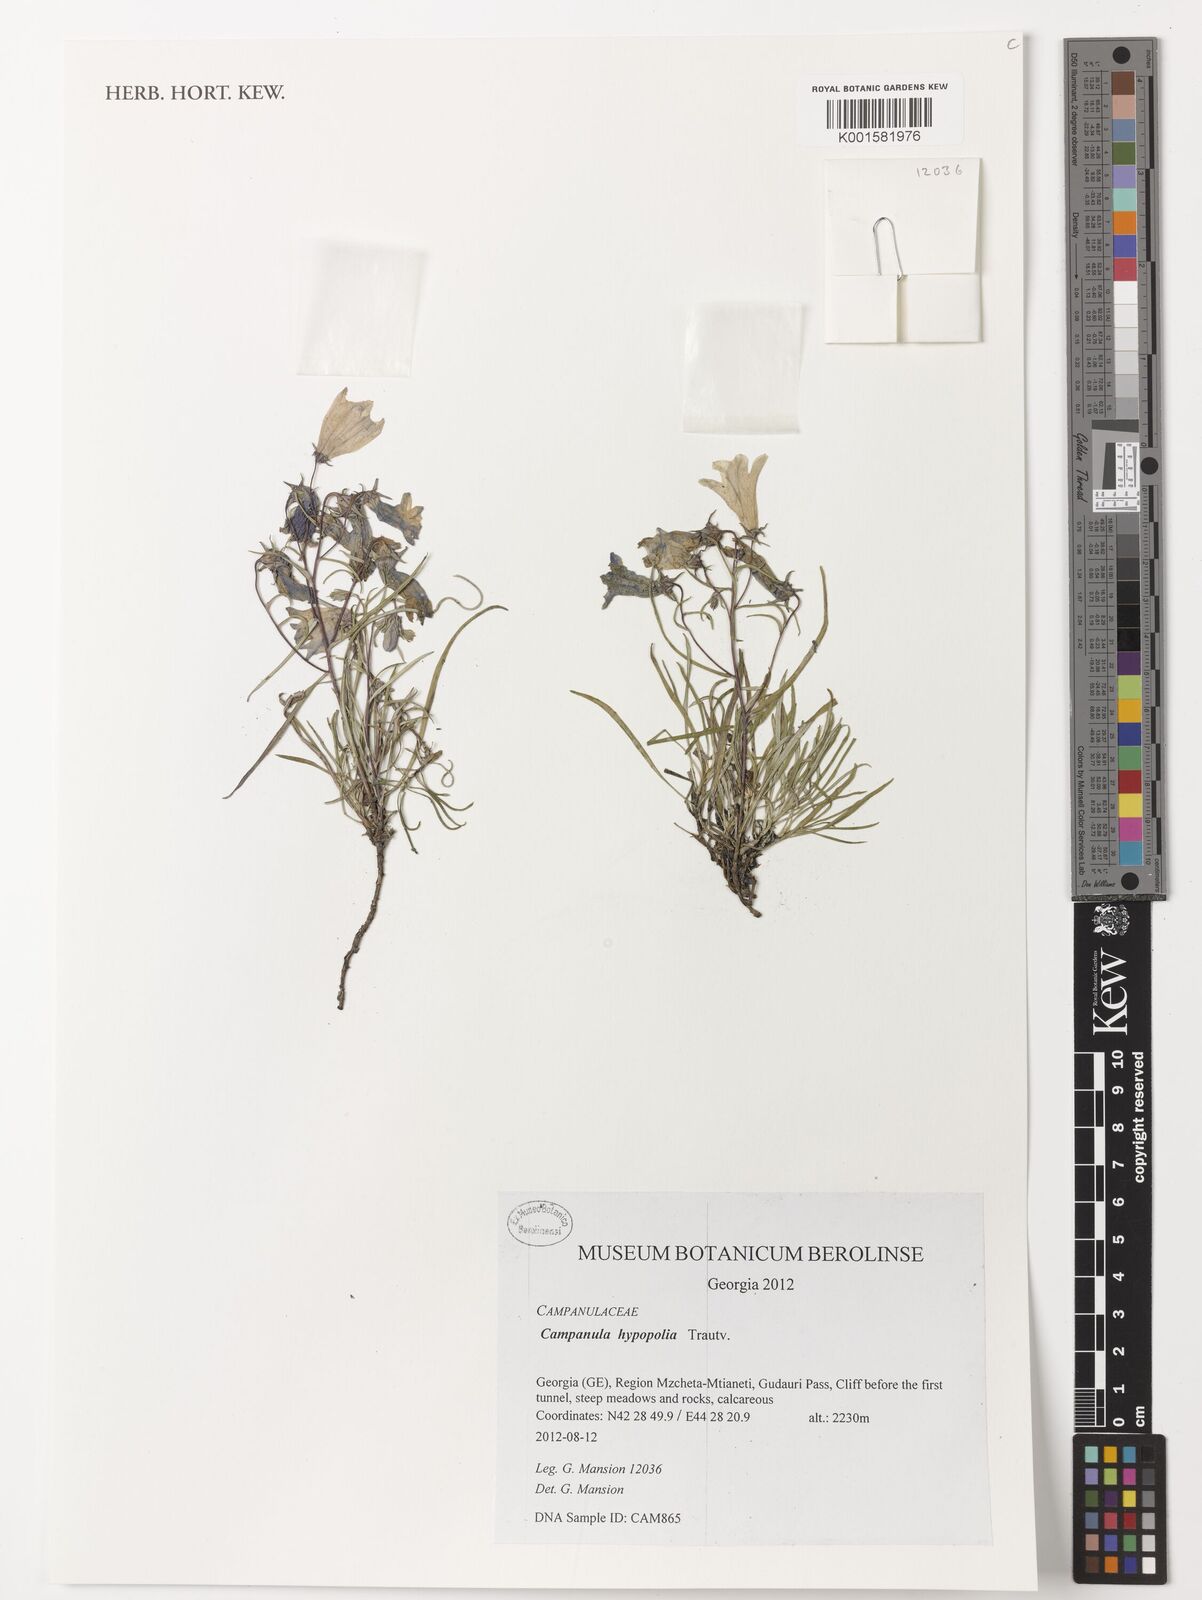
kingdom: Plantae
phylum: Tracheophyta
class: Magnoliopsida
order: Asterales
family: Campanulaceae
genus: Campanula
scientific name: Campanula hypopolia
